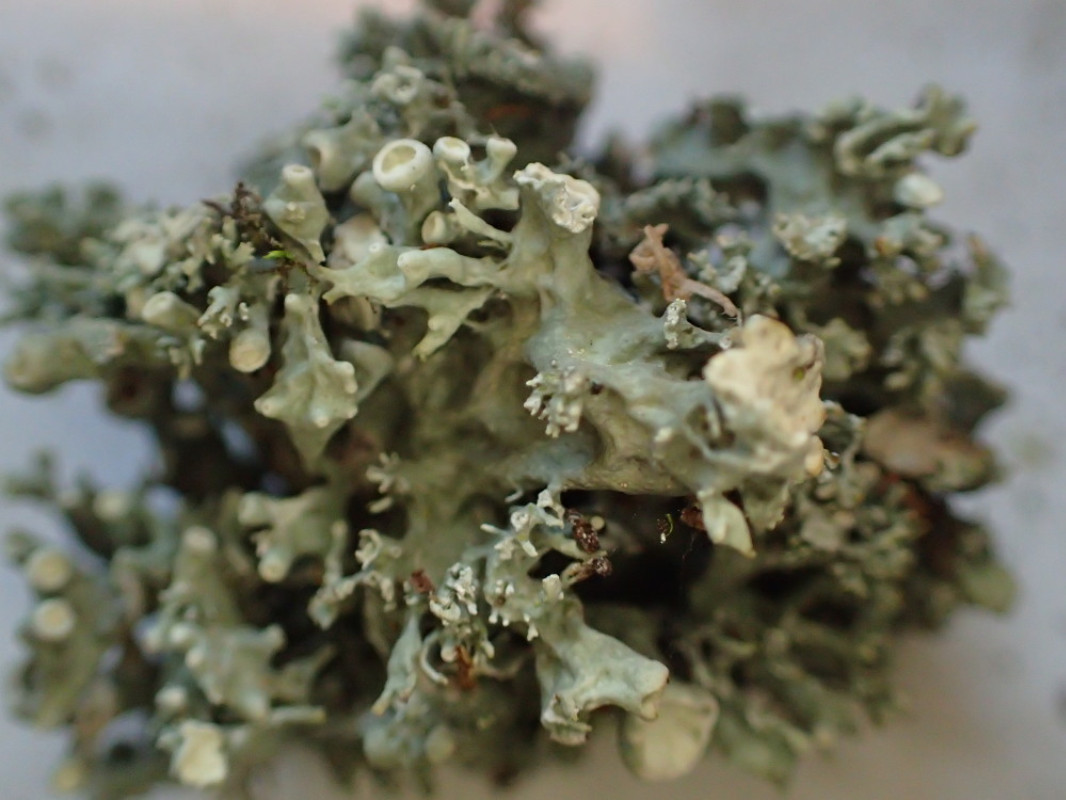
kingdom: Fungi
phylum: Ascomycota
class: Lecanoromycetes
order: Lecanorales
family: Ramalinaceae
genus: Ramalina
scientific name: Ramalina fastigiata
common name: tue-grenlav
